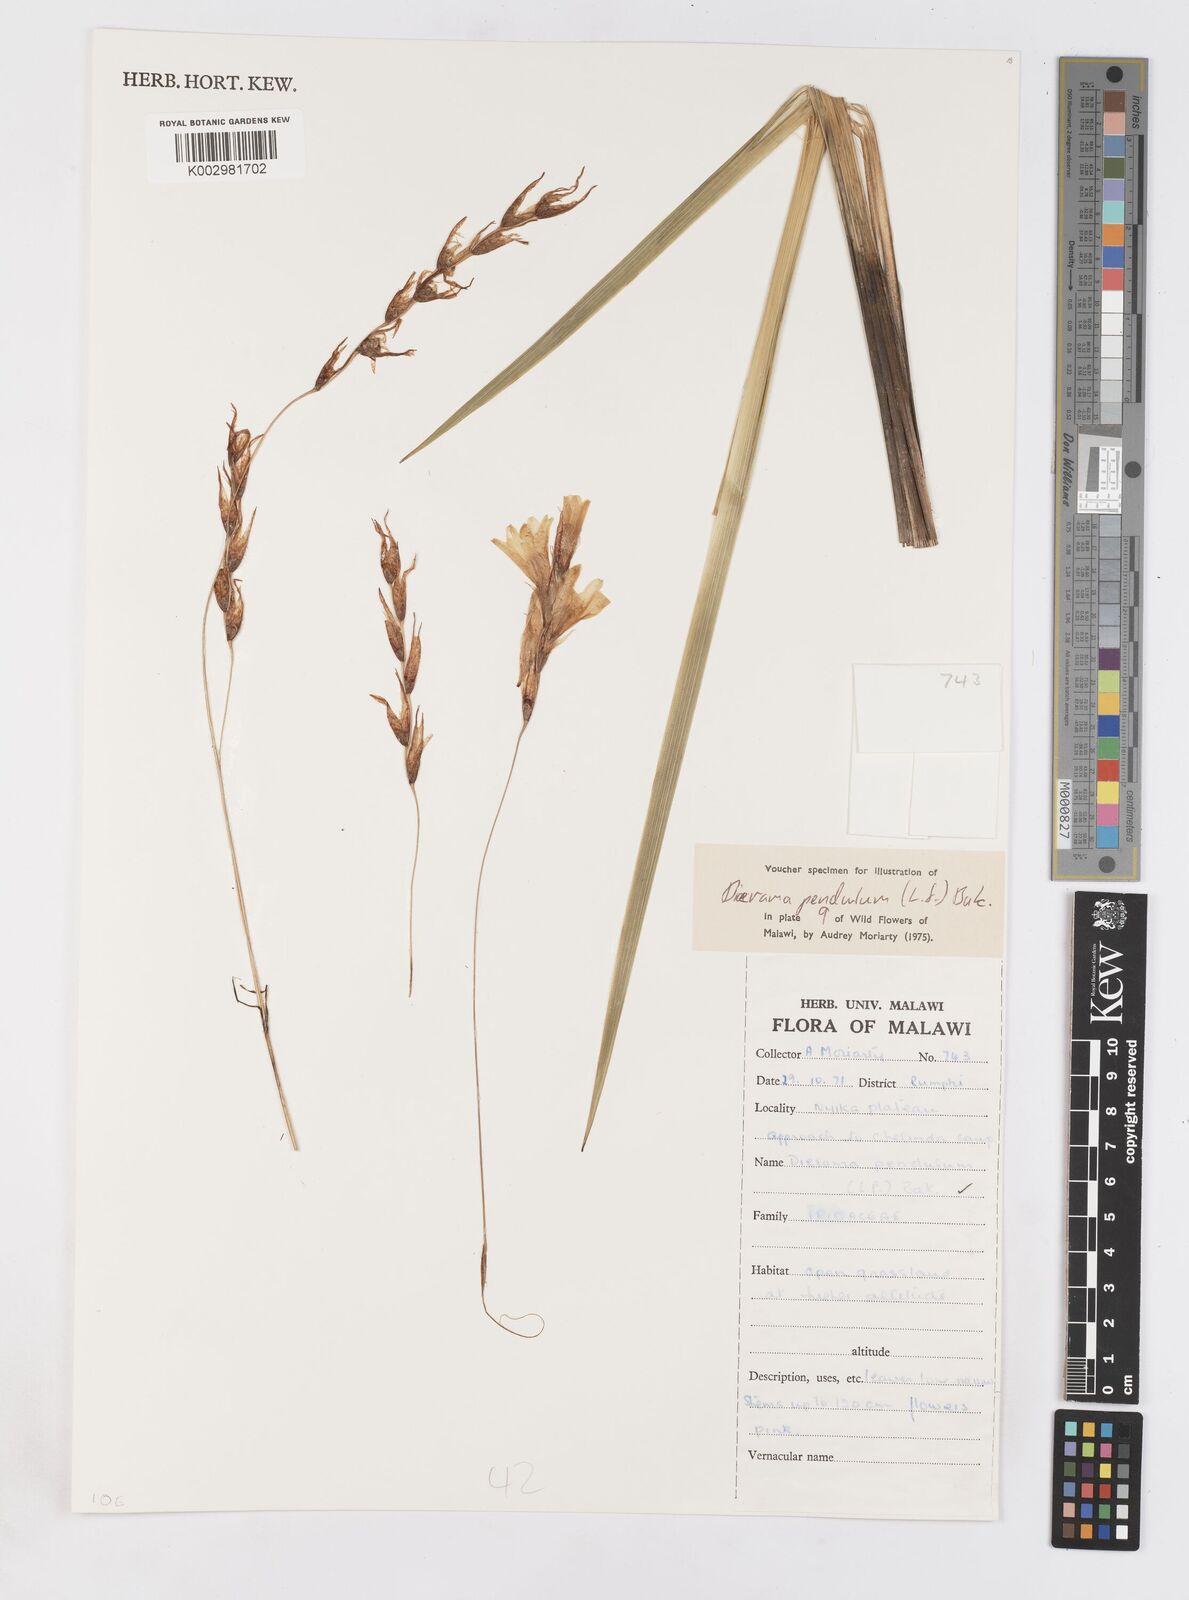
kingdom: Plantae
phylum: Tracheophyta
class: Liliopsida
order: Asparagales
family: Iridaceae
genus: Dierama
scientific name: Dierama cupuliflorum
